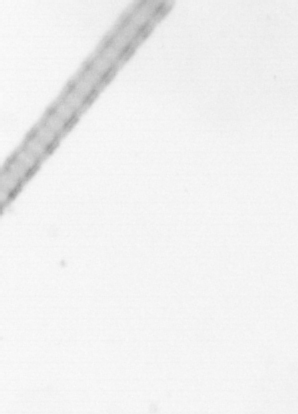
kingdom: Chromista
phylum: Ochrophyta
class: Bacillariophyceae
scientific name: Bacillariophyceae
